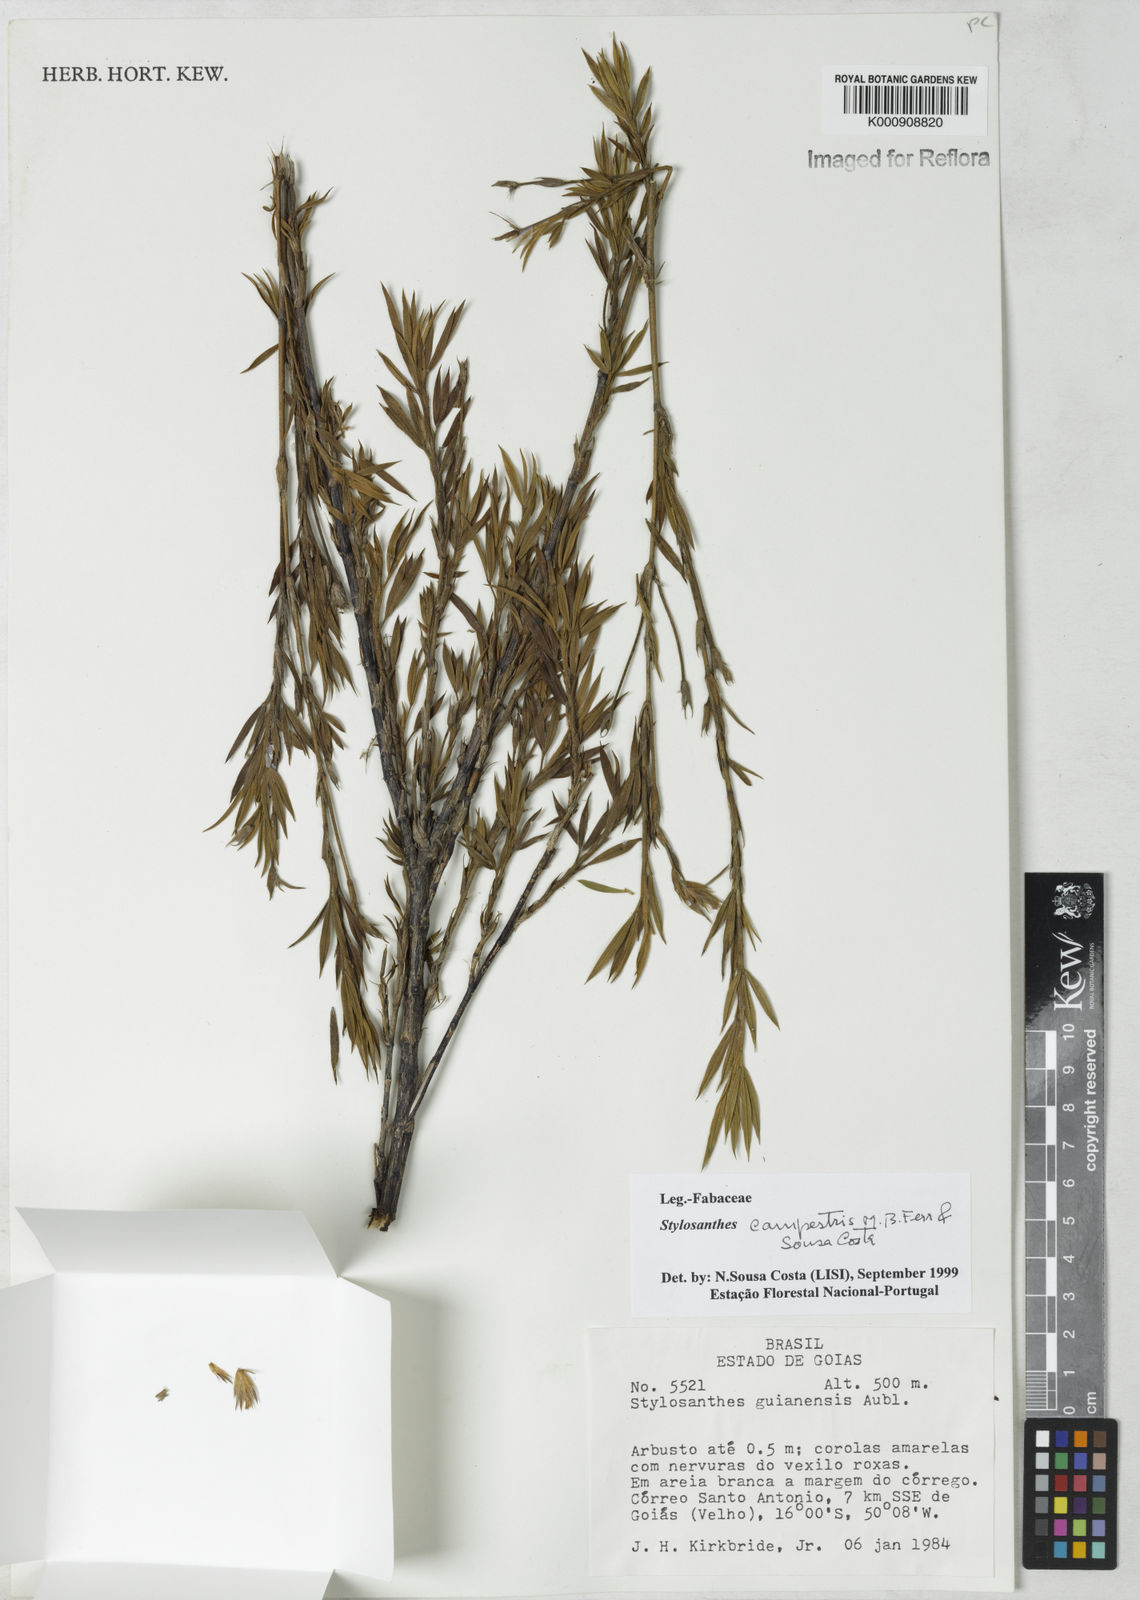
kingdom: Plantae
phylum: Tracheophyta
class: Magnoliopsida
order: Fabales
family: Fabaceae
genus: Stylosanthes
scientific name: Stylosanthes campestris
